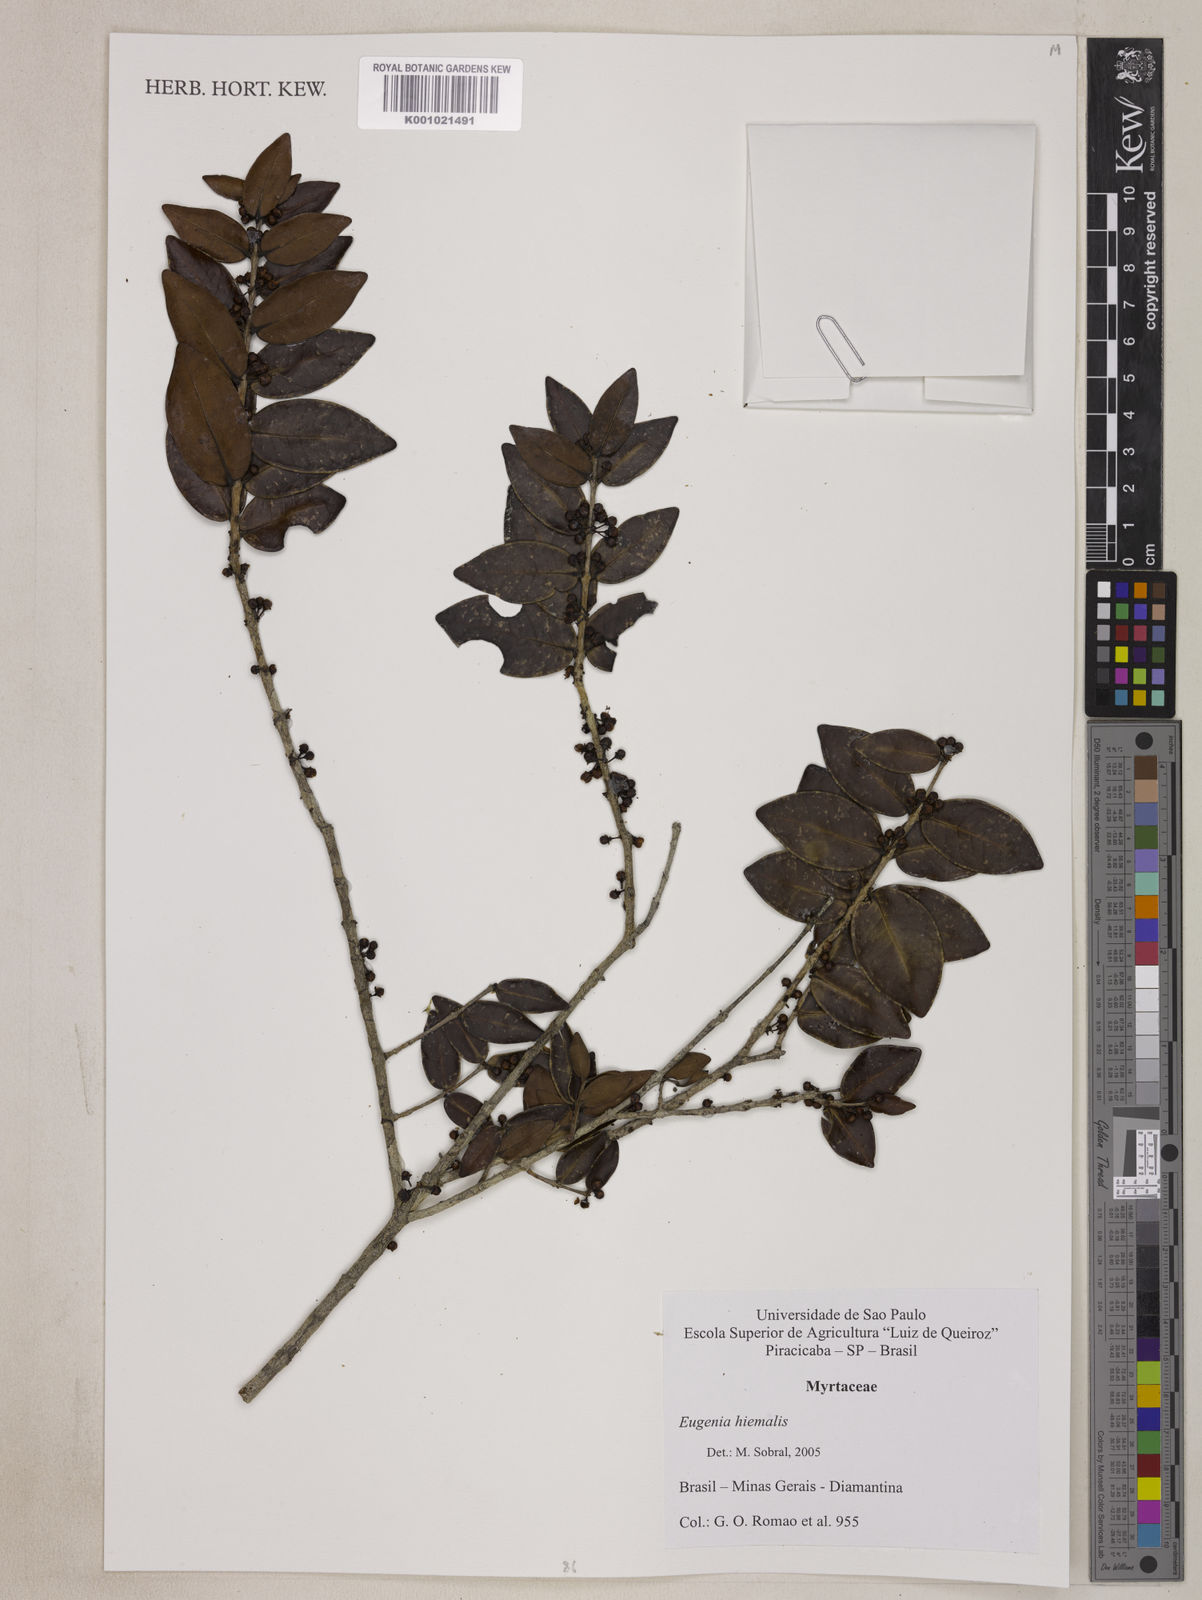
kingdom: Plantae
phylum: Tracheophyta
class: Magnoliopsida
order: Myrtales
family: Myrtaceae
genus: Eugenia
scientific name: Eugenia hiemalis
